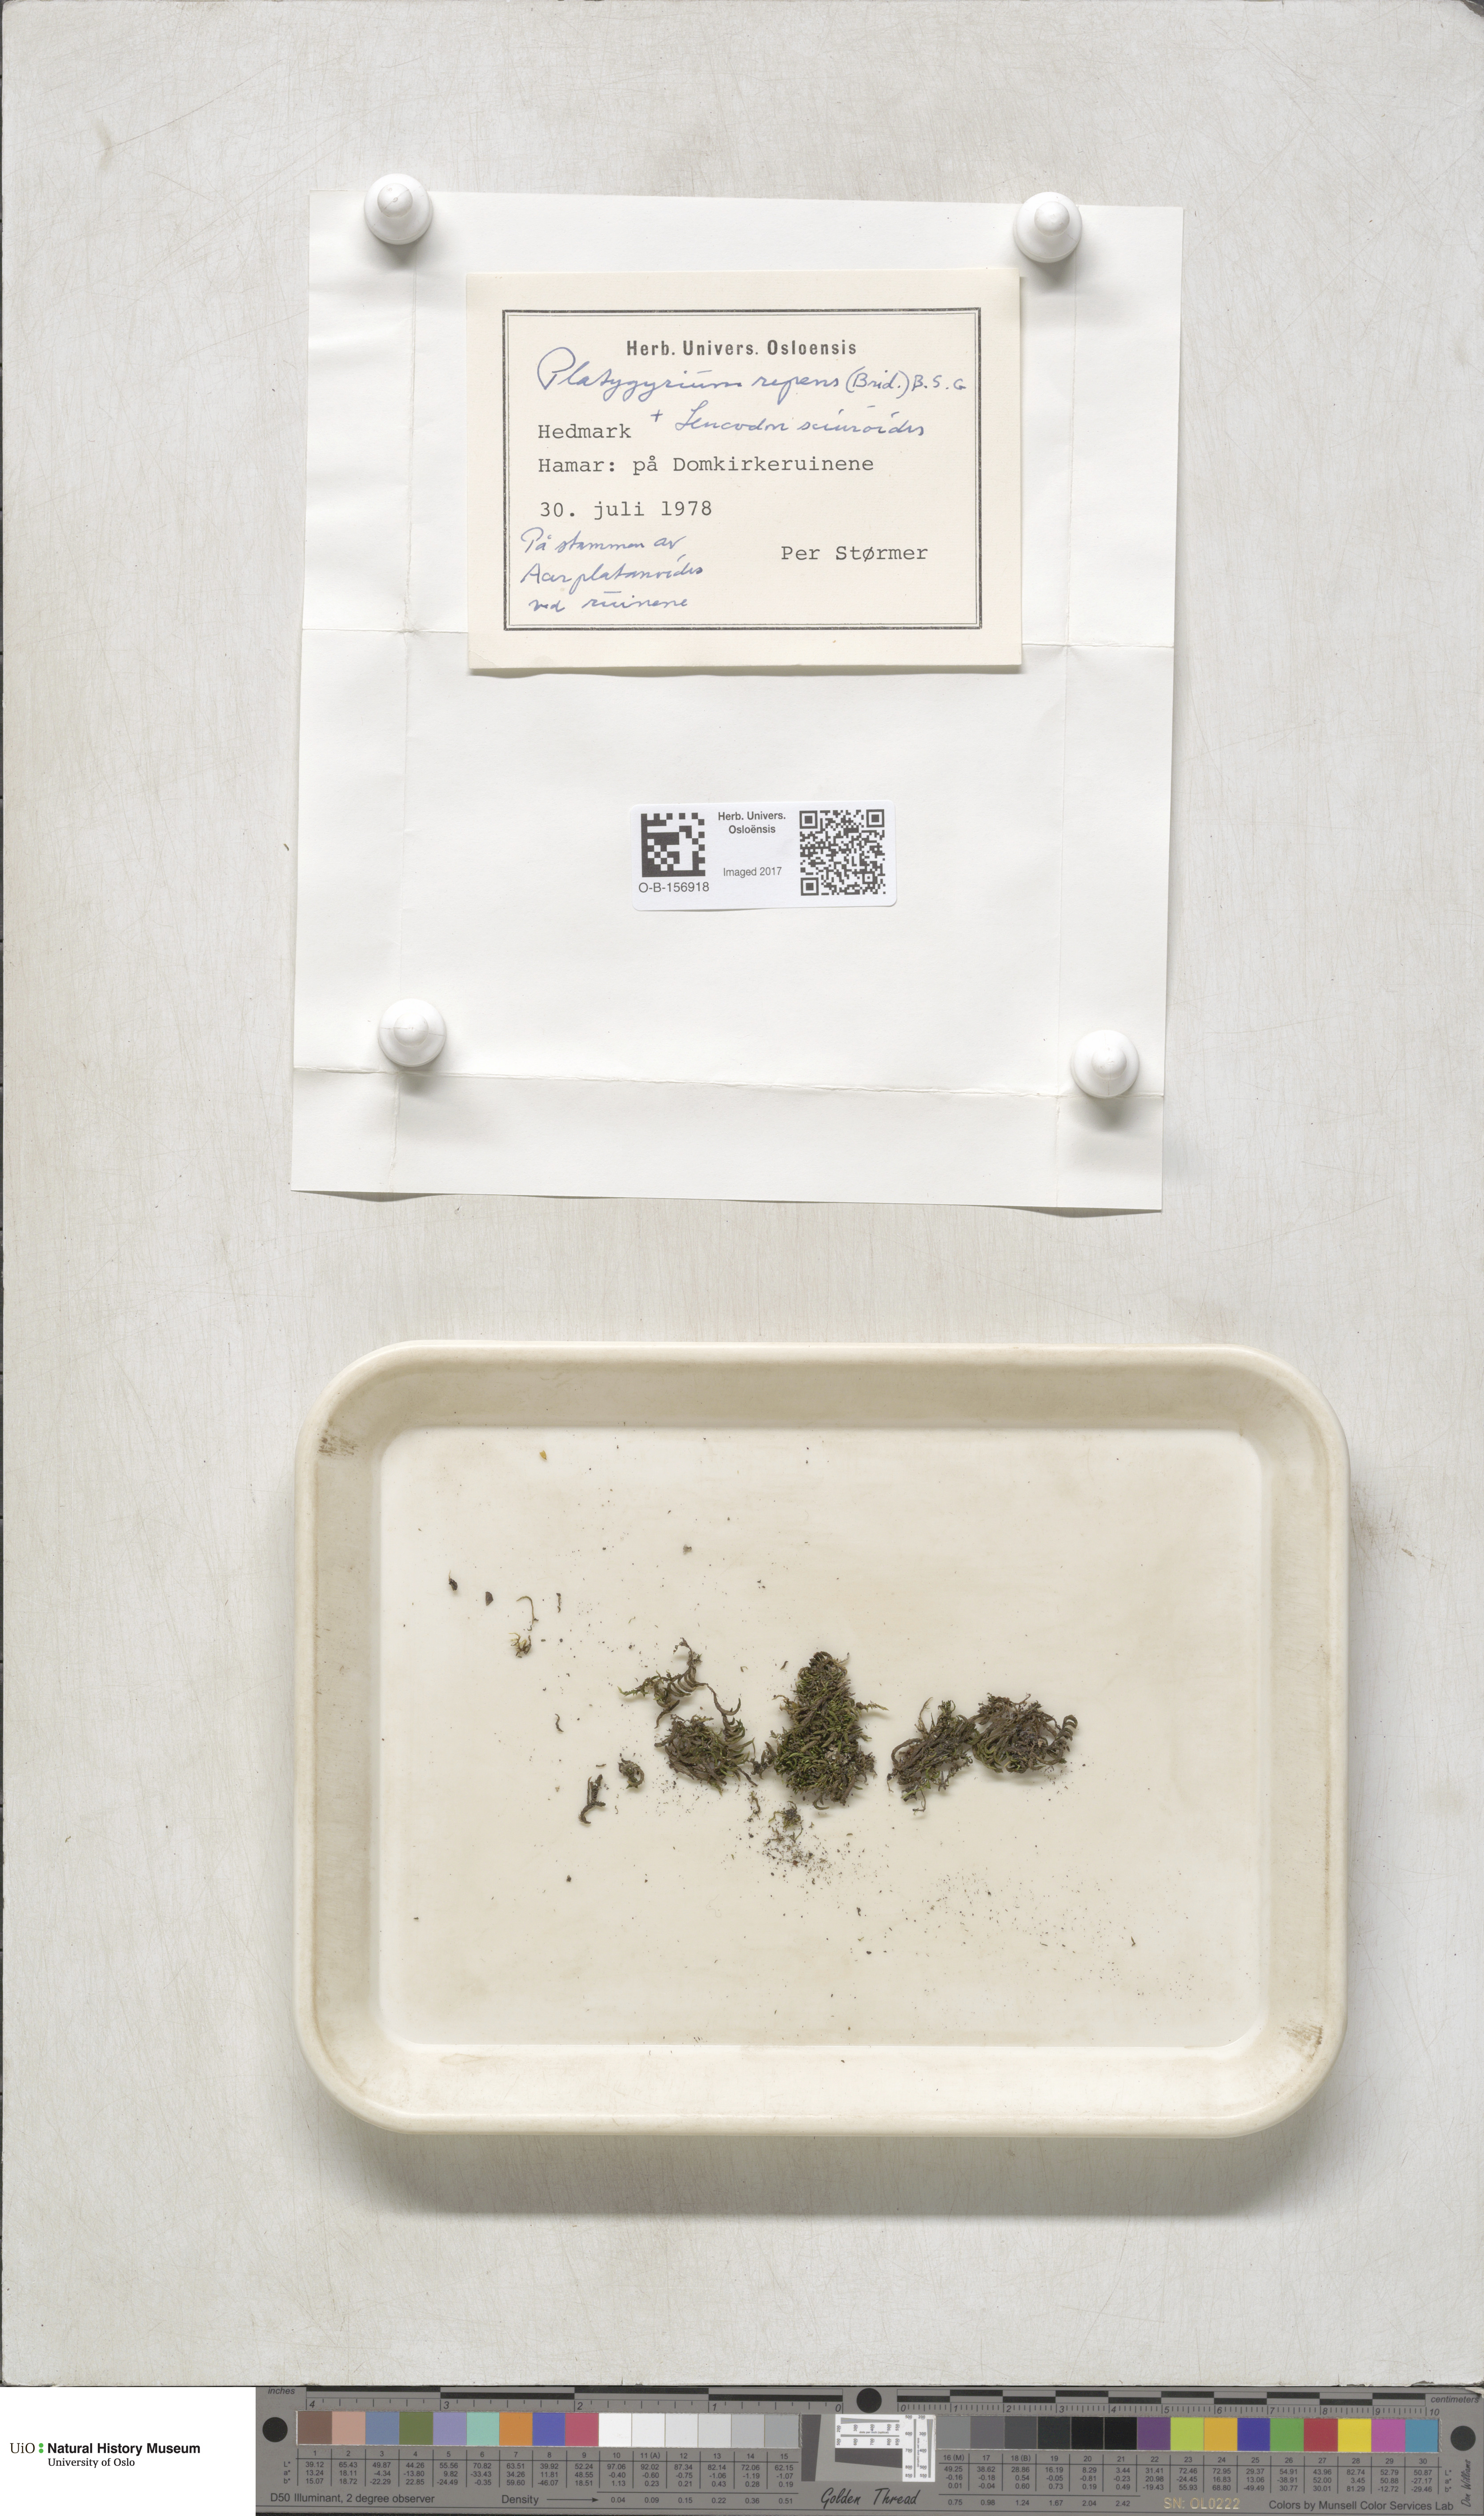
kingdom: Plantae
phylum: Bryophyta
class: Bryopsida
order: Hypnales
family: Pylaisiadelphaceae
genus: Platygyrium
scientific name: Platygyrium repens
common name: Flat-brocade moss
